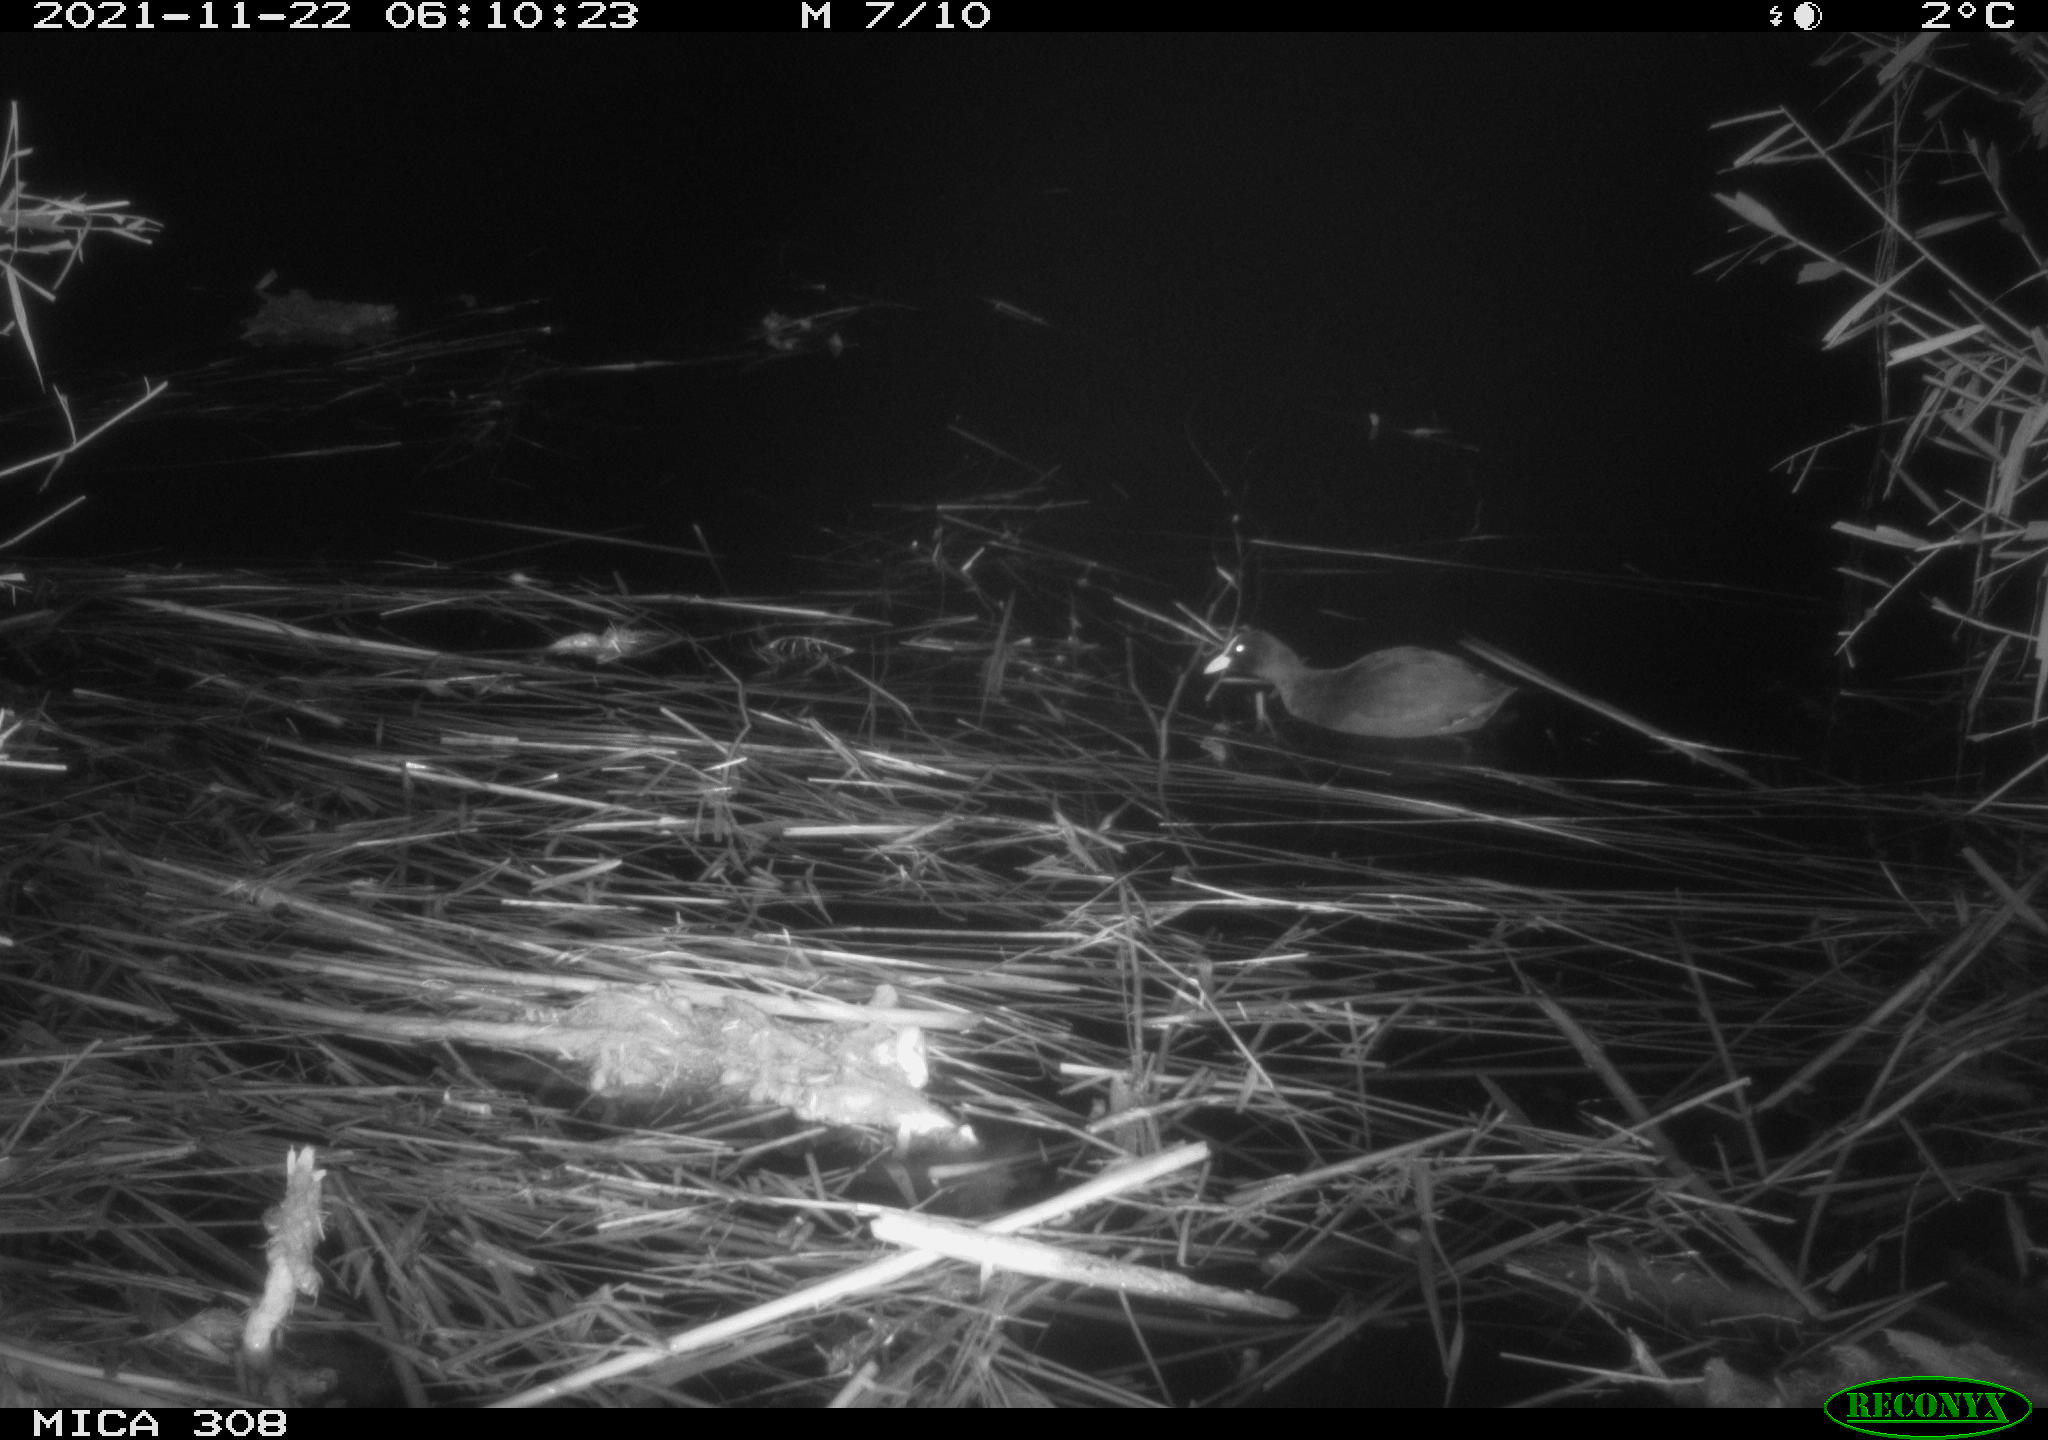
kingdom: Animalia
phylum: Chordata
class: Aves
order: Gruiformes
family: Rallidae
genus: Fulica
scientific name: Fulica atra
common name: Eurasian coot
